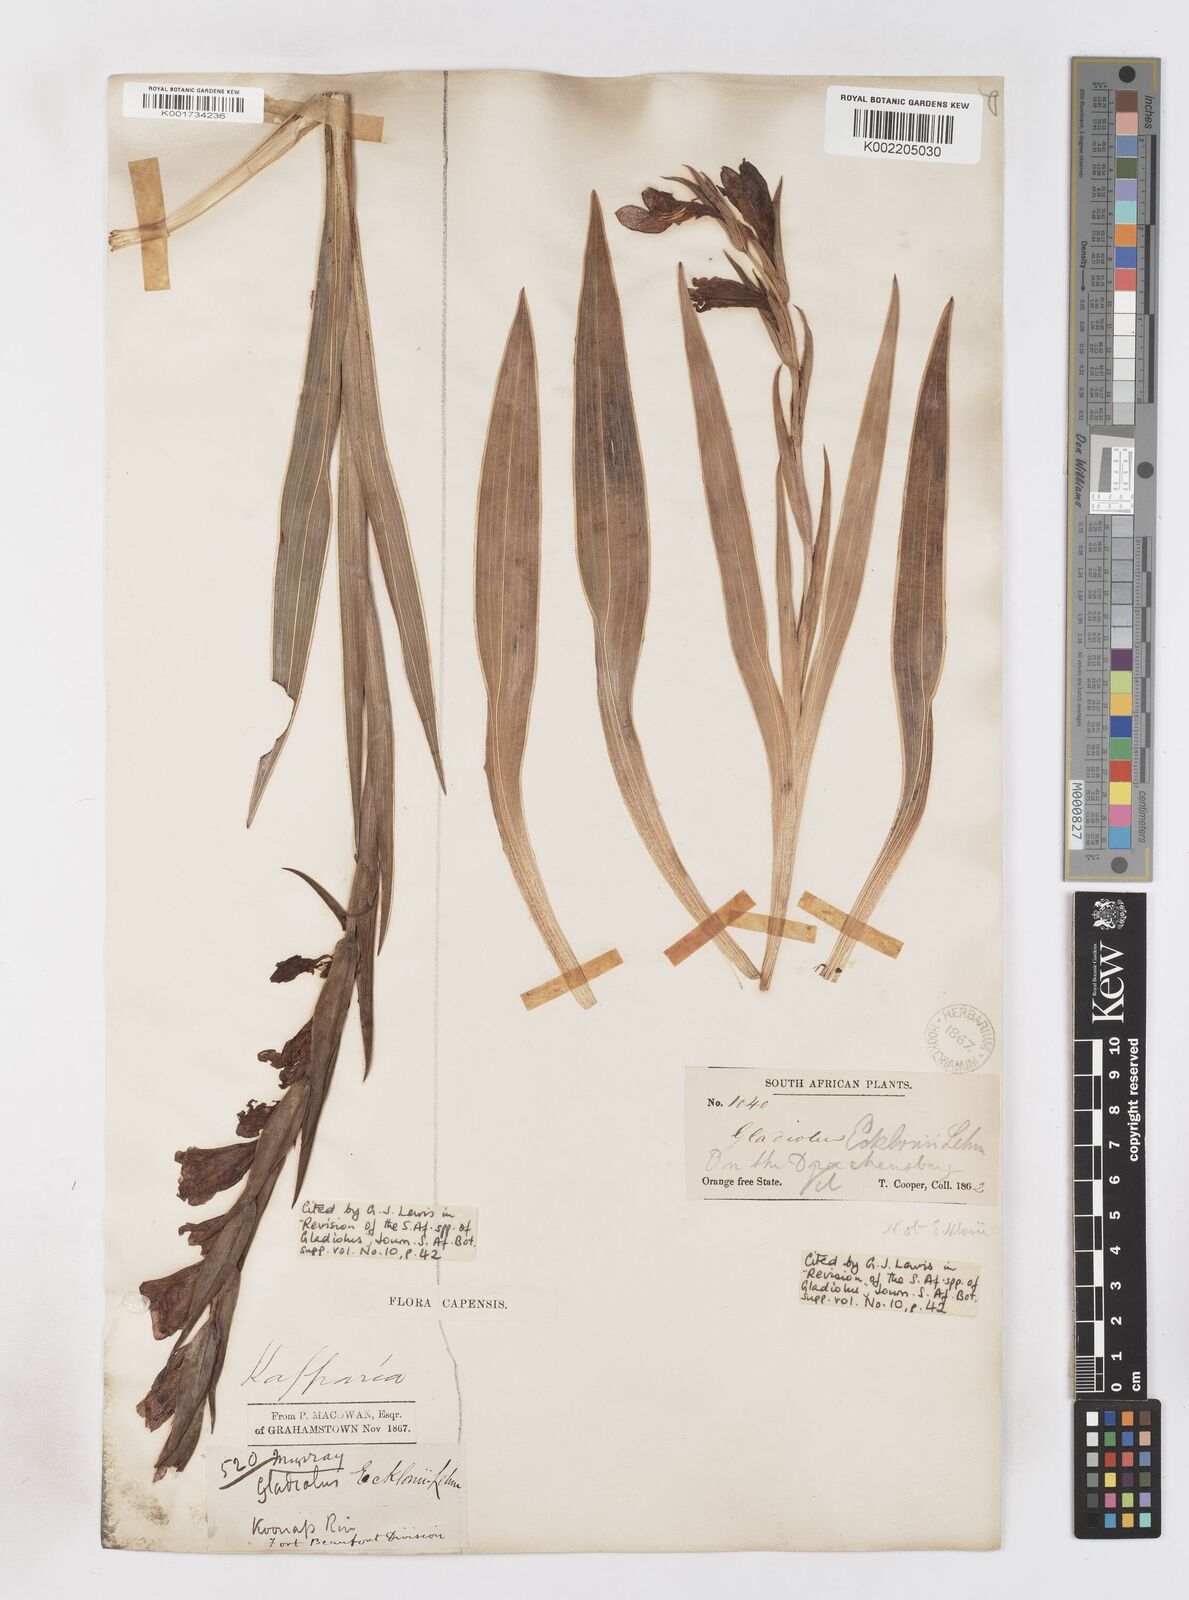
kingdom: Plantae
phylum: Tracheophyta
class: Liliopsida
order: Asparagales
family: Iridaceae
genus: Gladiolus
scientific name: Gladiolus ecklonii
